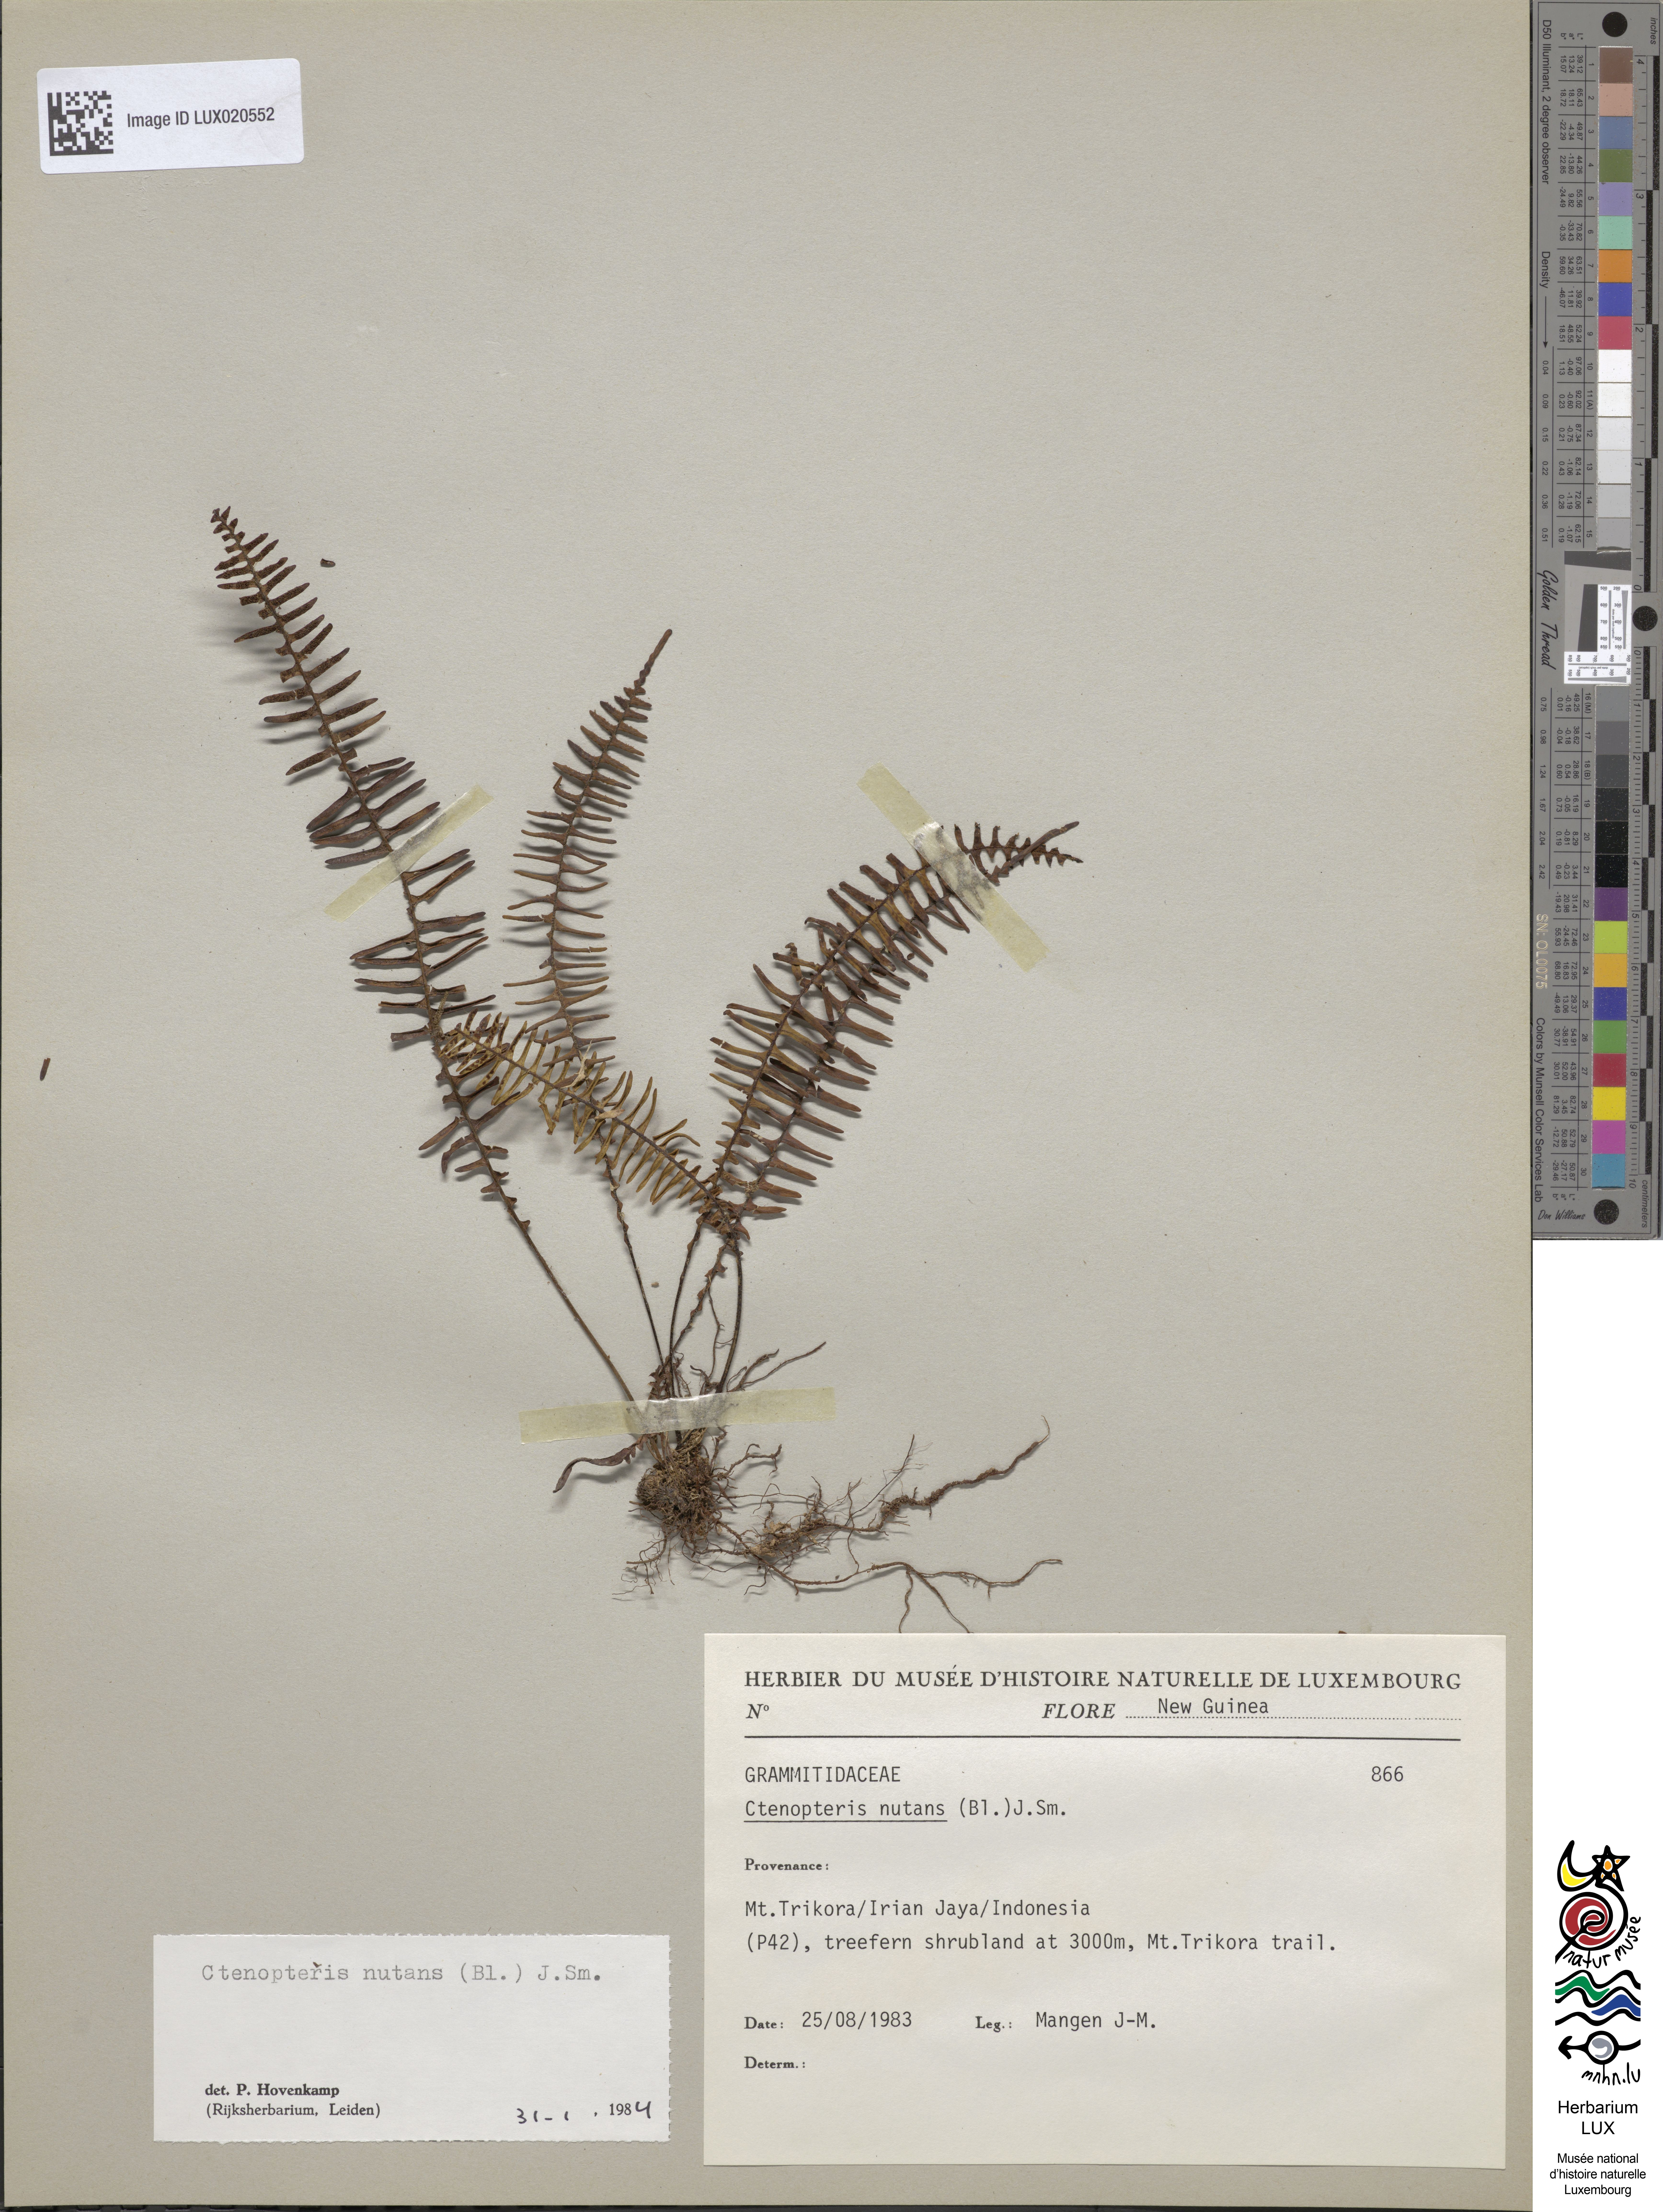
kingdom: Plantae
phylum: Tracheophyta
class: Polypodiopsida
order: Polypodiales
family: Polypodiaceae
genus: Prosaptia
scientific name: Prosaptia nutans
